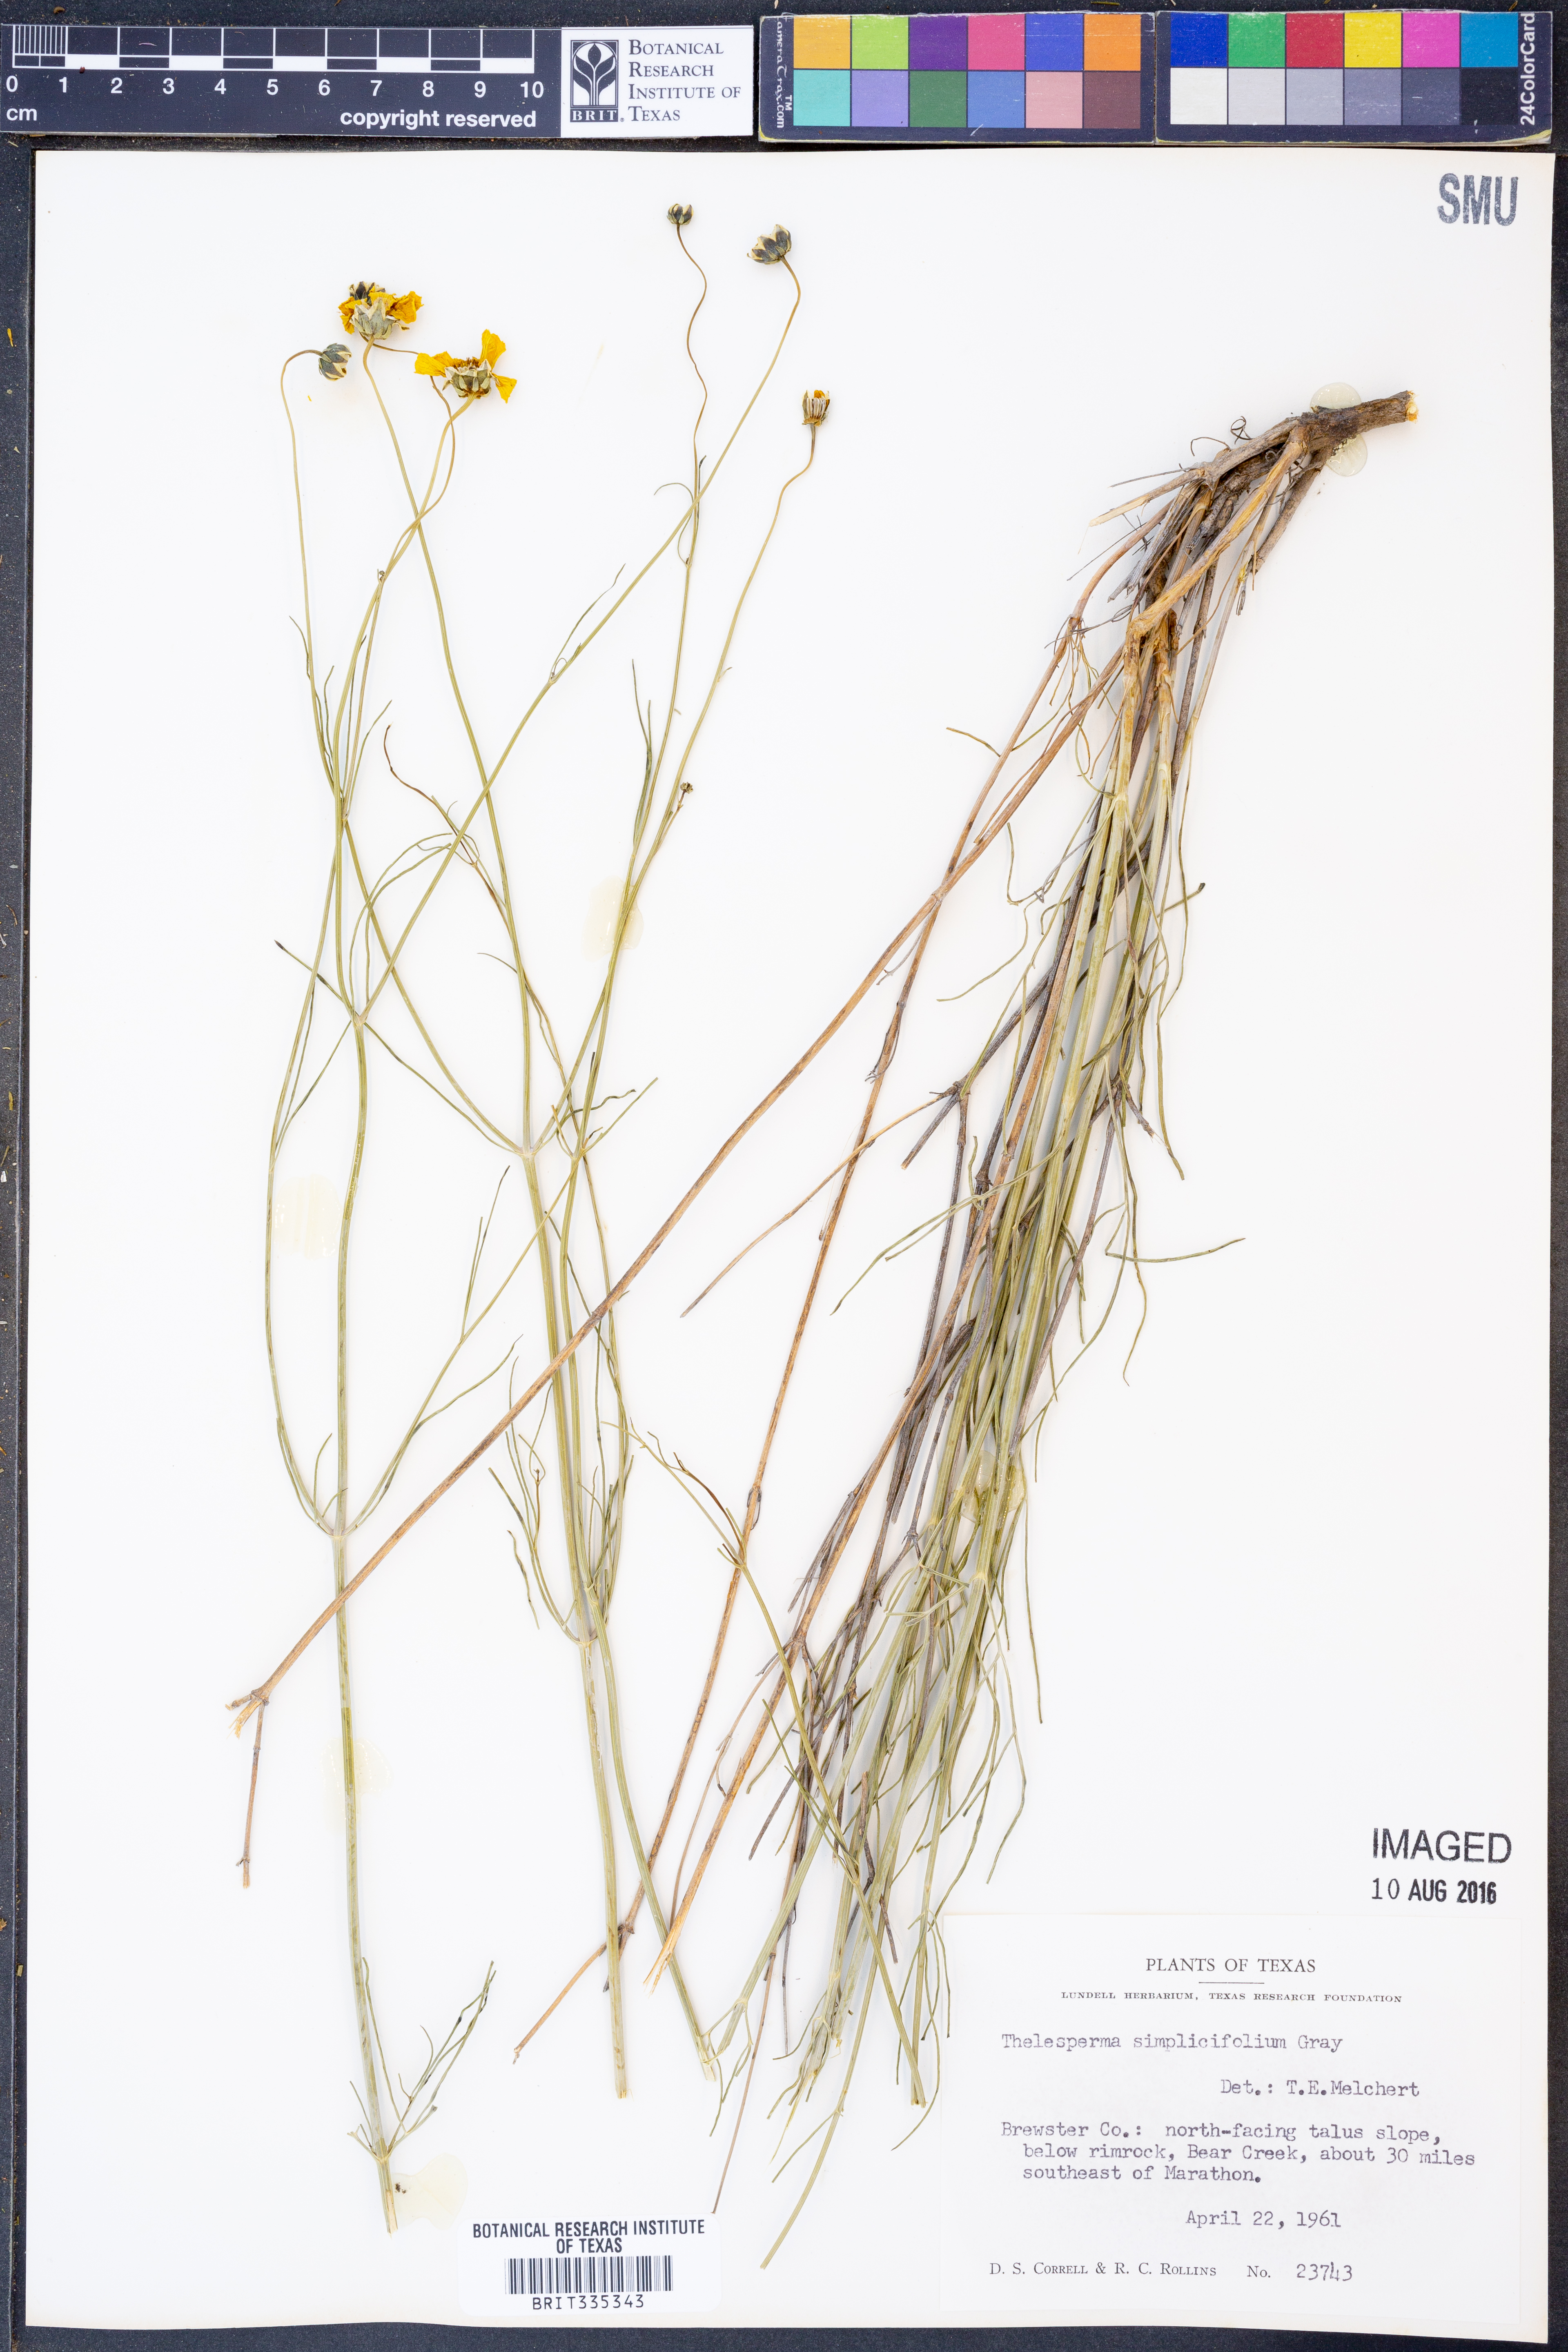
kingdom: Plantae
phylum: Tracheophyta
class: Magnoliopsida
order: Asterales
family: Asteraceae
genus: Thelesperma
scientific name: Thelesperma simplicifolium
